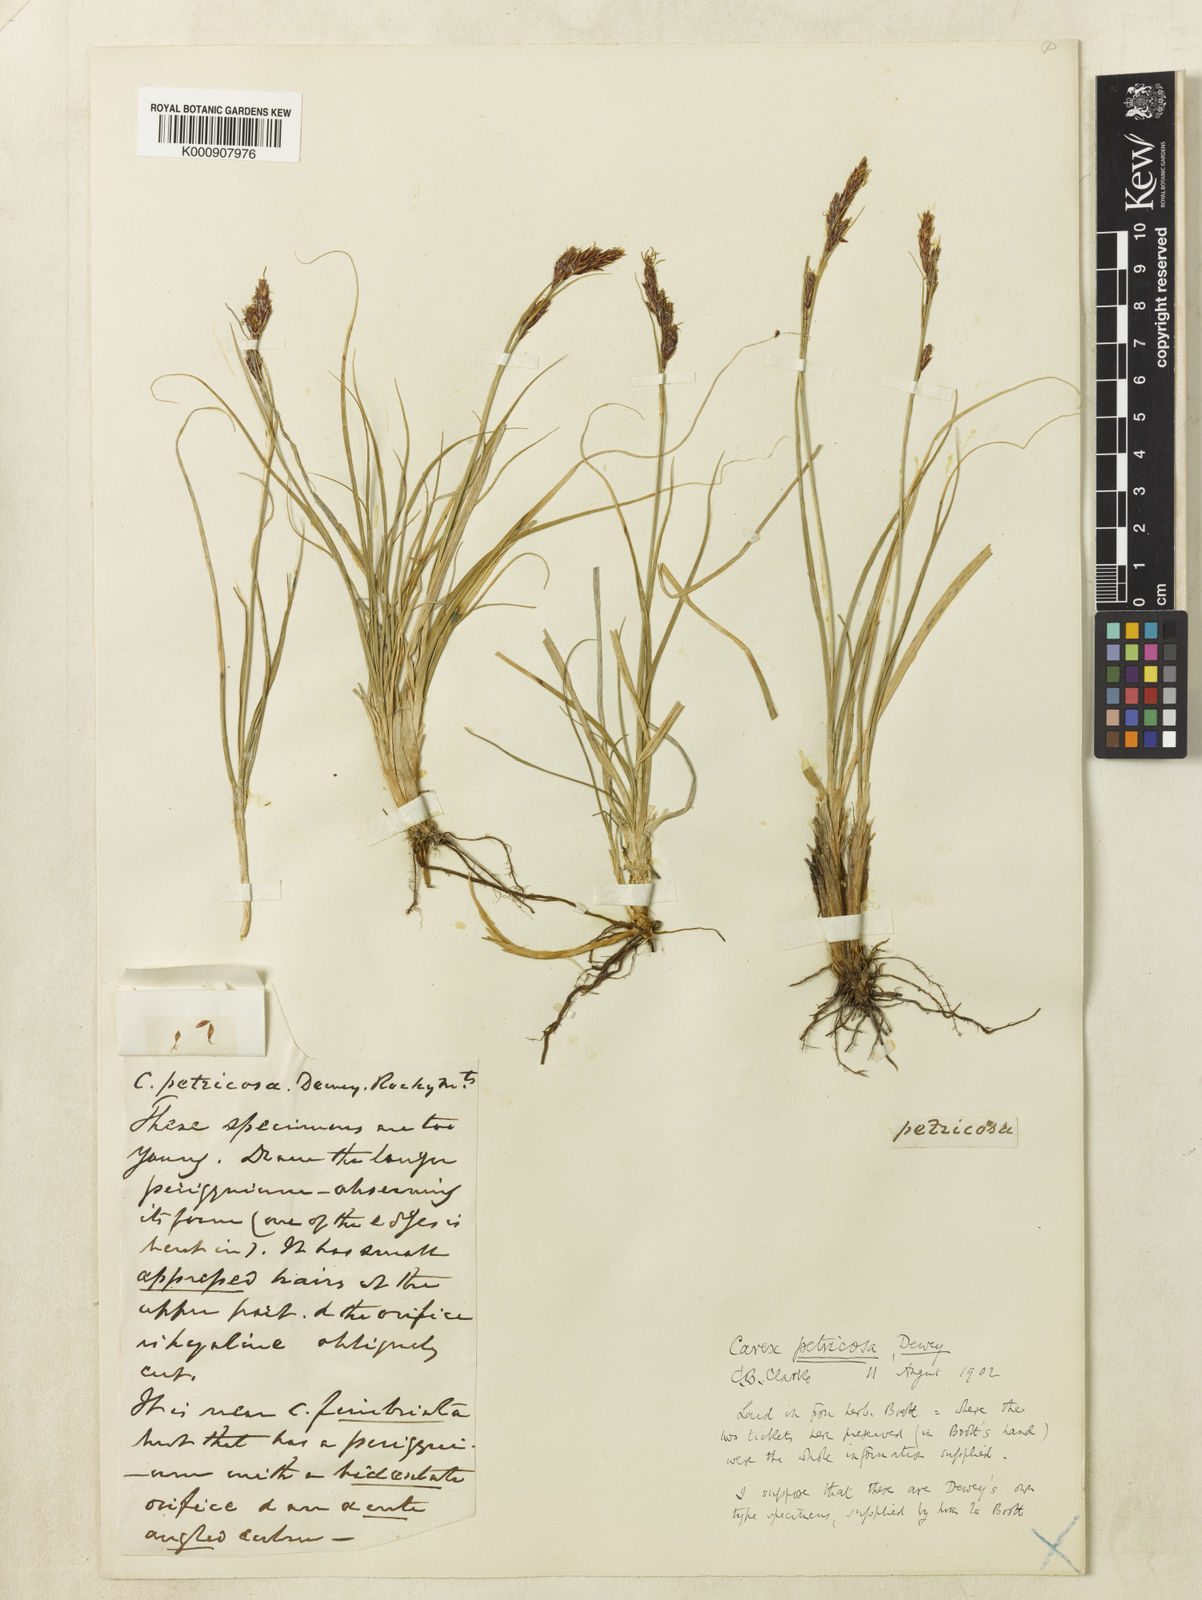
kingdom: Plantae
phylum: Tracheophyta
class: Liliopsida
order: Poales
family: Cyperaceae
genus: Carex
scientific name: Carex petricosa
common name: Rock sedge
